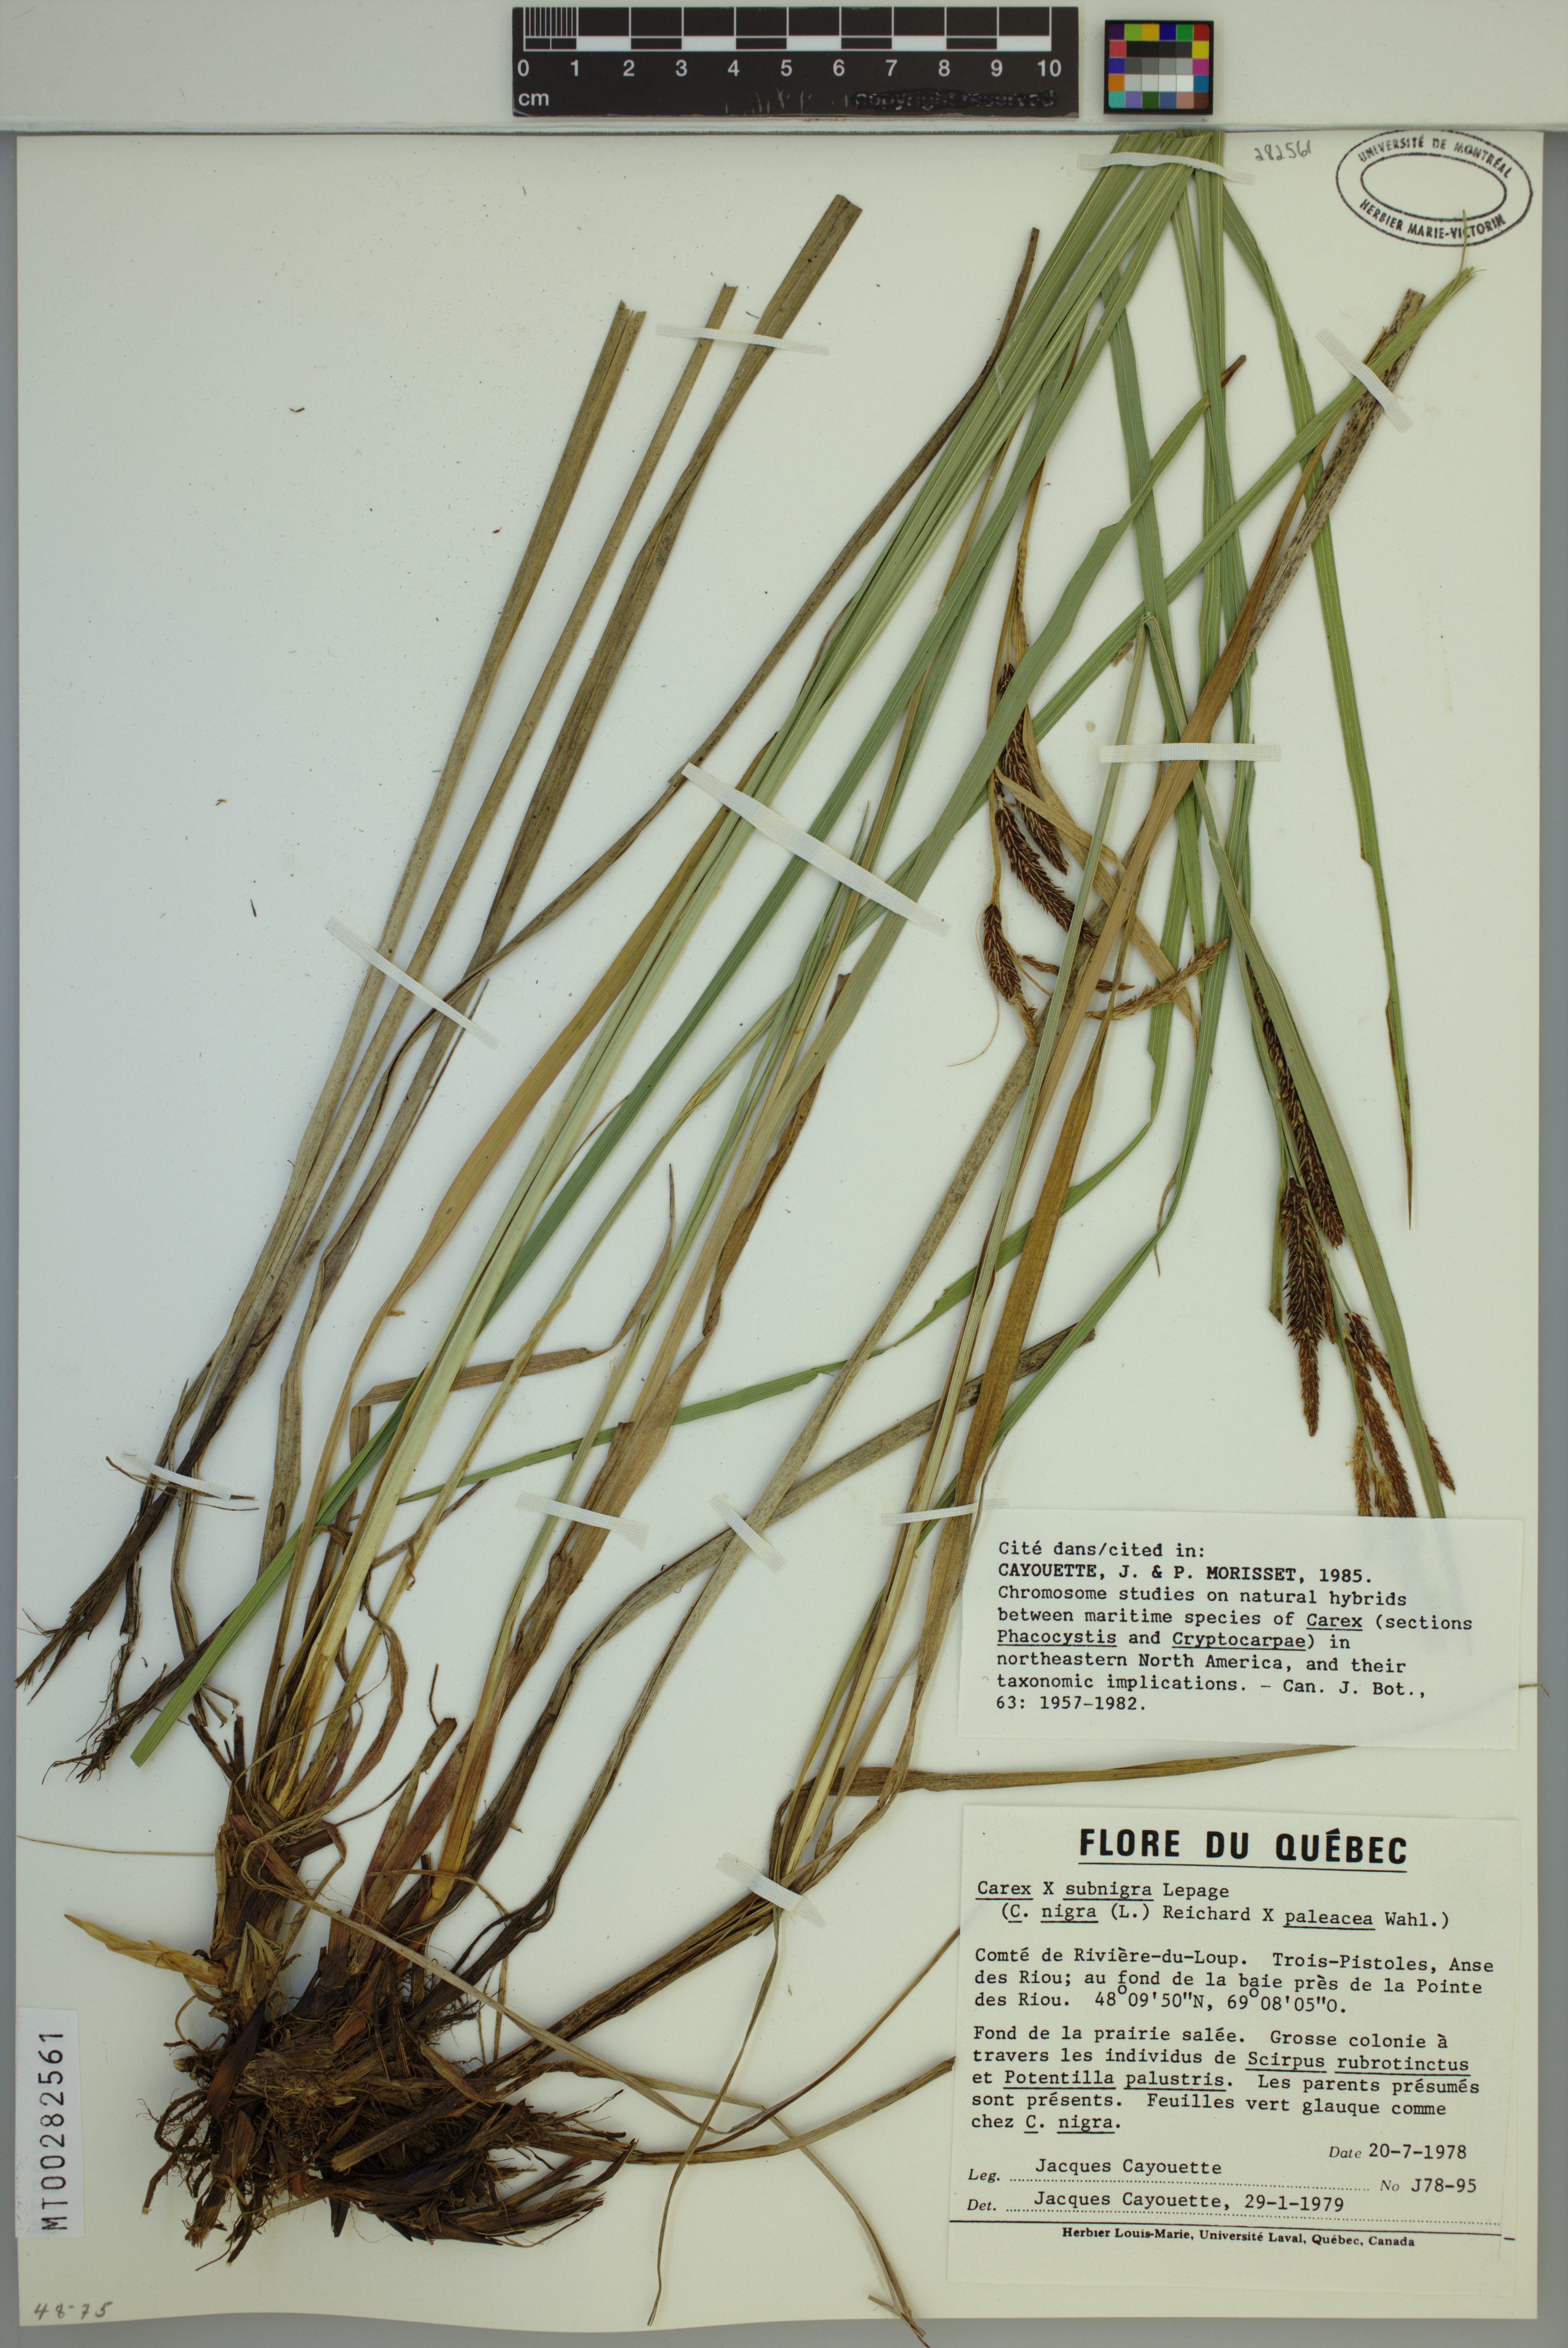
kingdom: Plantae
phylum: Tracheophyta
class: Liliopsida
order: Poales
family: Cyperaceae
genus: Carex
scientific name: Carex vacillans
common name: Sedge
